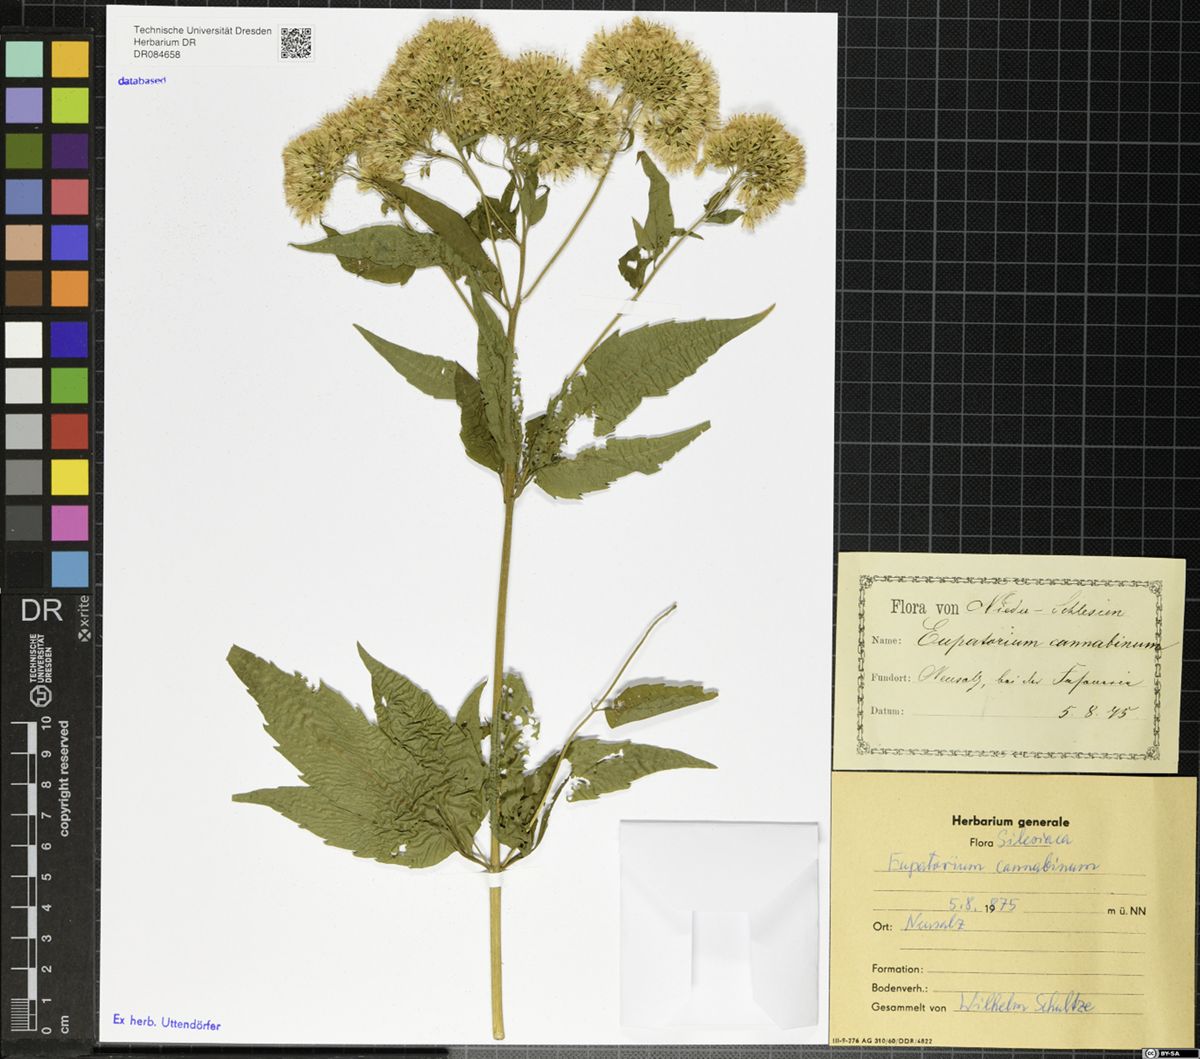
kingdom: Plantae
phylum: Tracheophyta
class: Magnoliopsida
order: Asterales
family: Asteraceae
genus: Eupatorium
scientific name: Eupatorium cannabinum
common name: Hemp-agrimony
